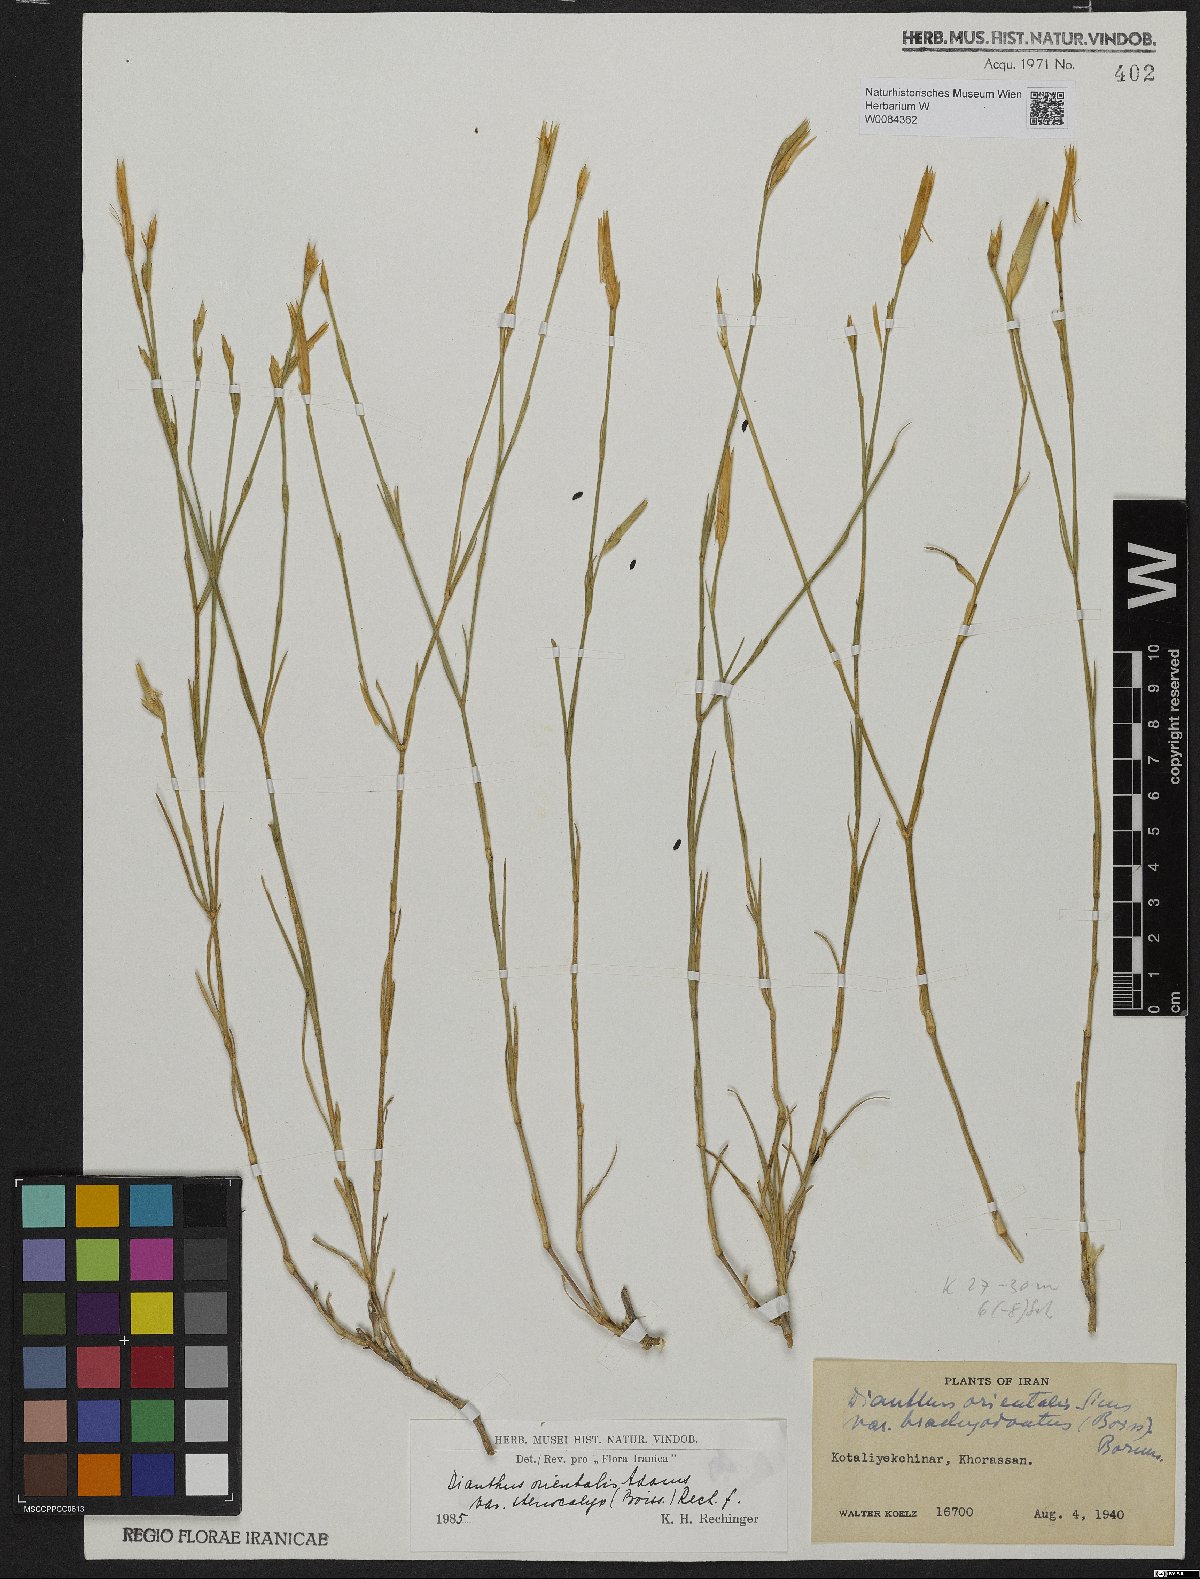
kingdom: Plantae
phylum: Tracheophyta
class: Magnoliopsida
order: Caryophyllales
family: Caryophyllaceae
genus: Dianthus
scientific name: Dianthus orientalis
